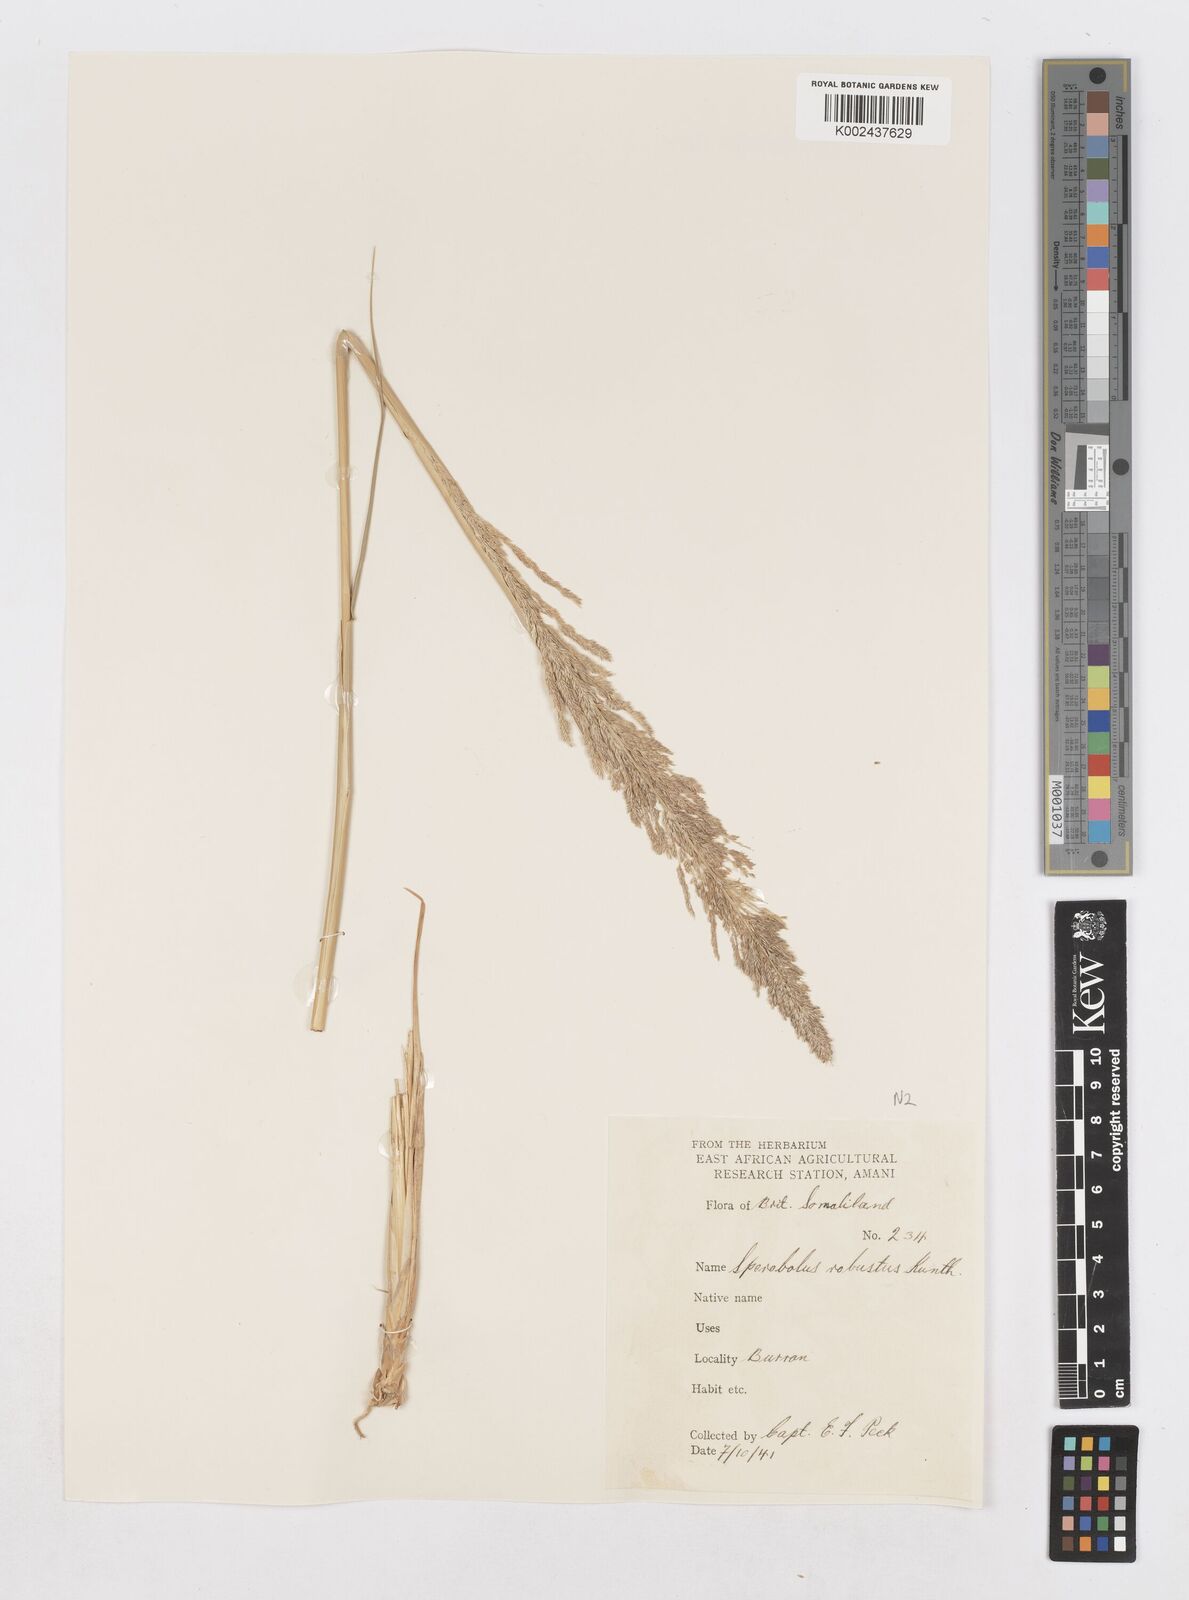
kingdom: Plantae
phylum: Tracheophyta
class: Liliopsida
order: Poales
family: Poaceae
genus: Sporobolus
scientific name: Sporobolus consimilis
